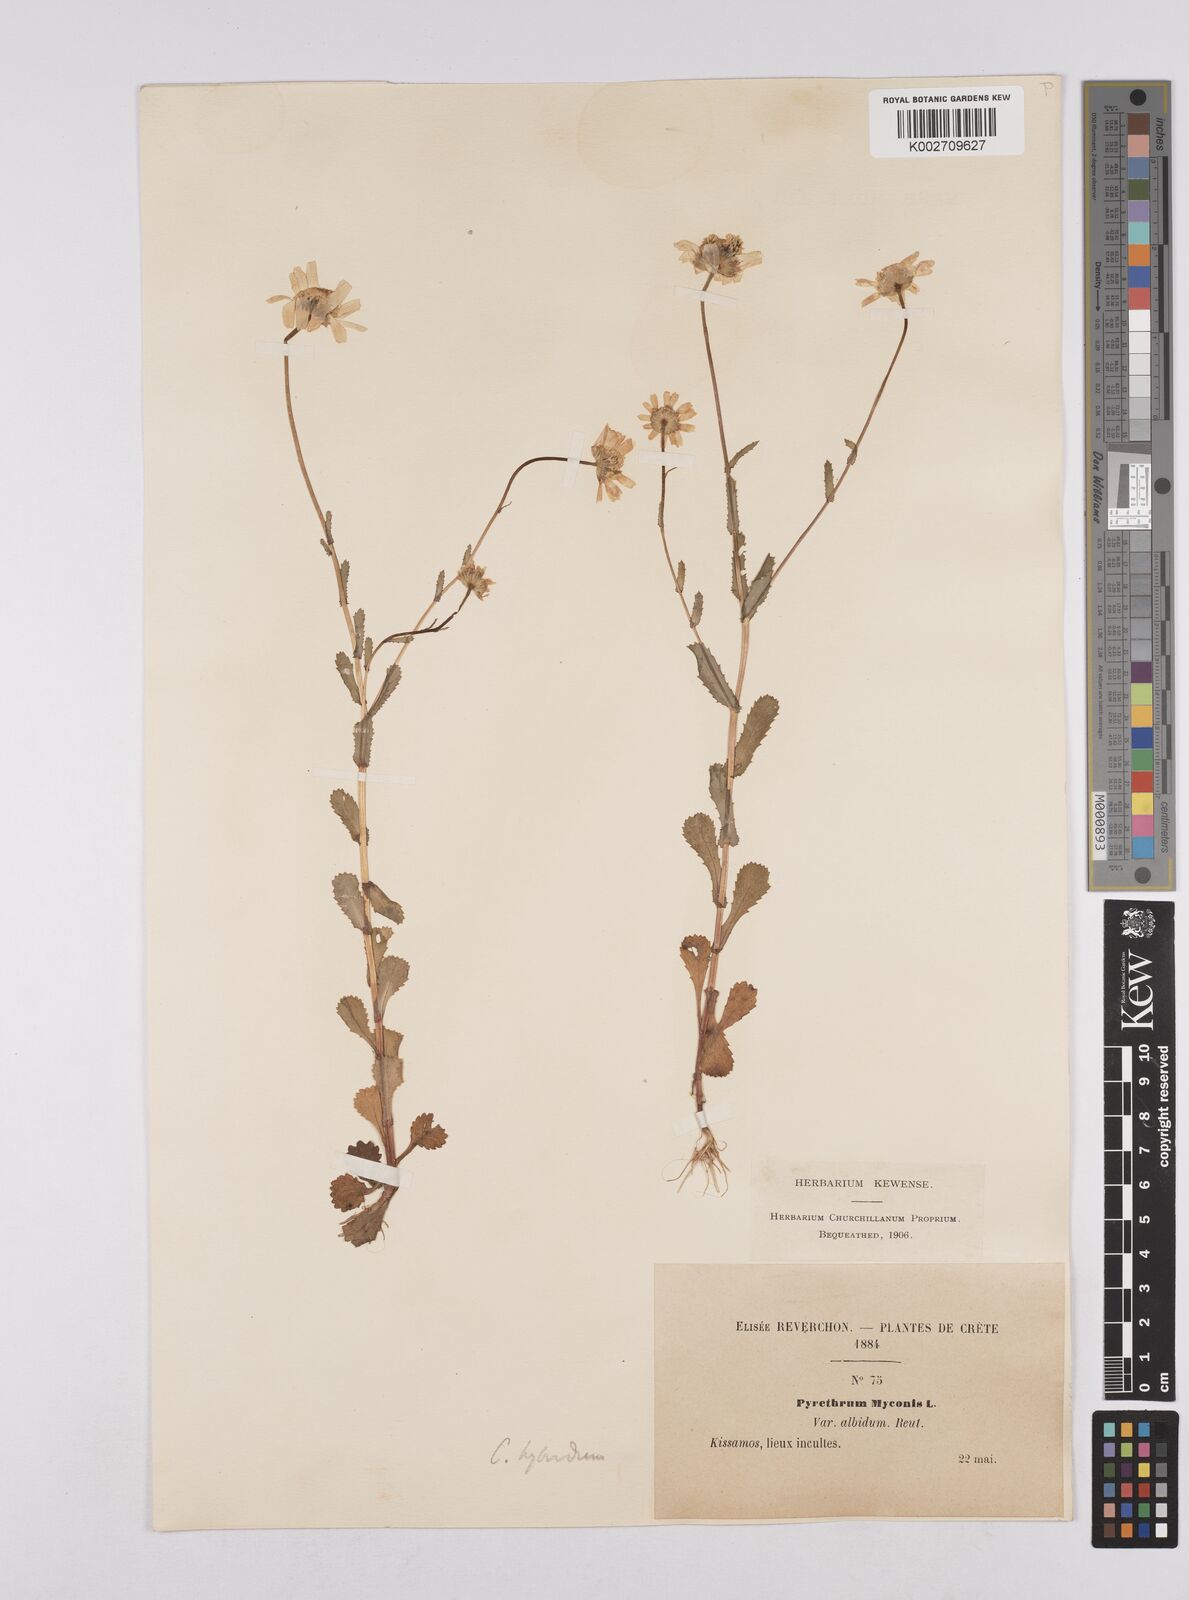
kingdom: Plantae
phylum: Tracheophyta
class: Magnoliopsida
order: Asterales
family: Asteraceae
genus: Coleostephus
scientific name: Coleostephus paludosus
